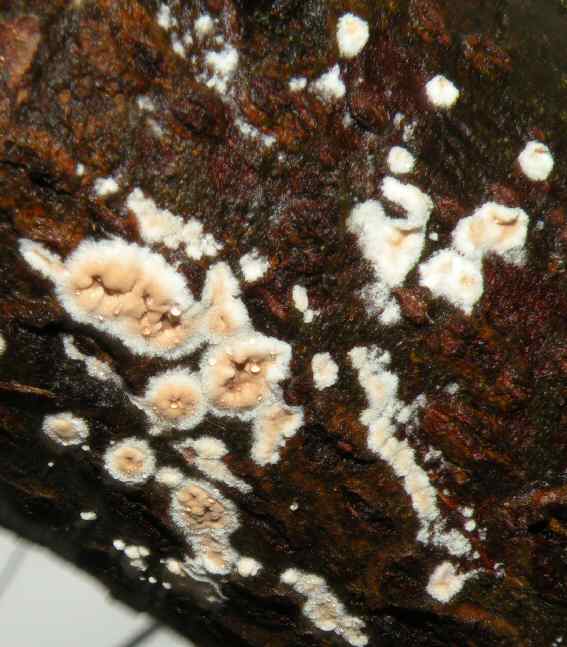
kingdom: Fungi
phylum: Basidiomycota
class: Agaricomycetes
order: Agaricales
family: Physalacriaceae
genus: Cylindrobasidium
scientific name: Cylindrobasidium evolvens
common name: sprækkehinde
